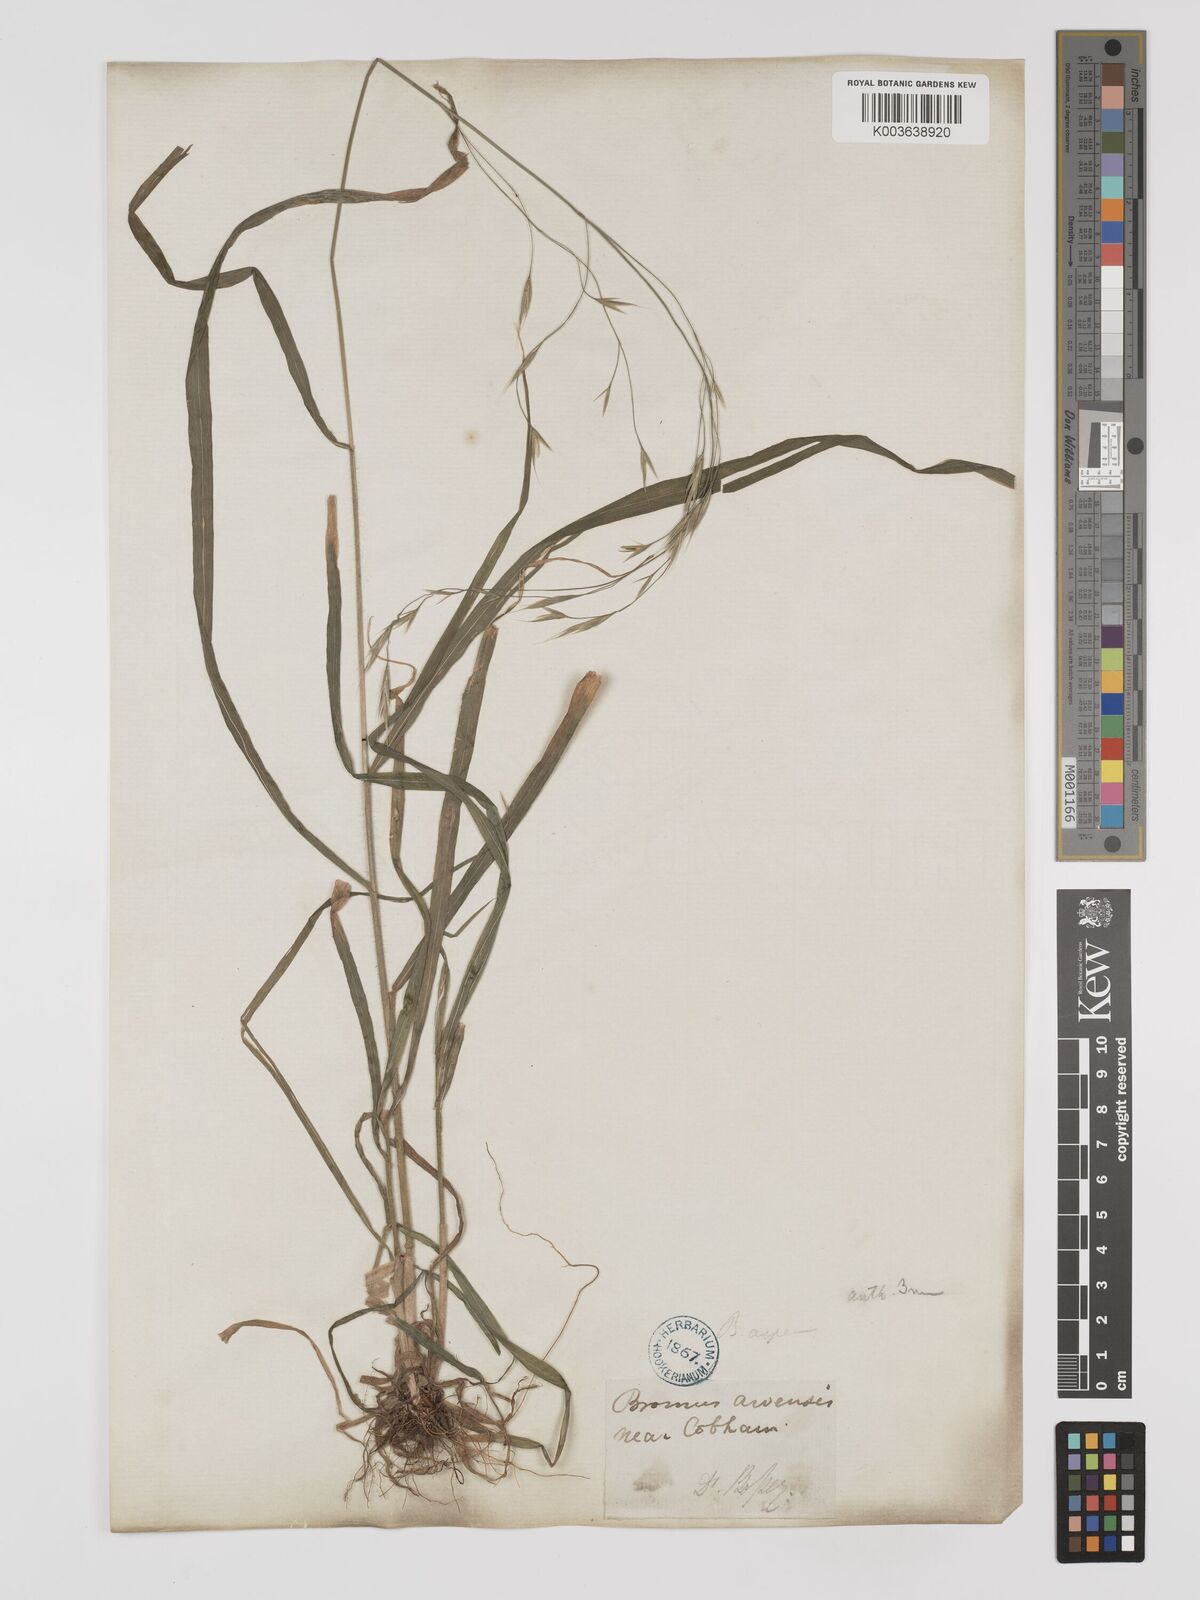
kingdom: Plantae
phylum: Tracheophyta
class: Liliopsida
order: Poales
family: Poaceae
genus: Bromus
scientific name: Bromus ramosus
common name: Hairy brome
